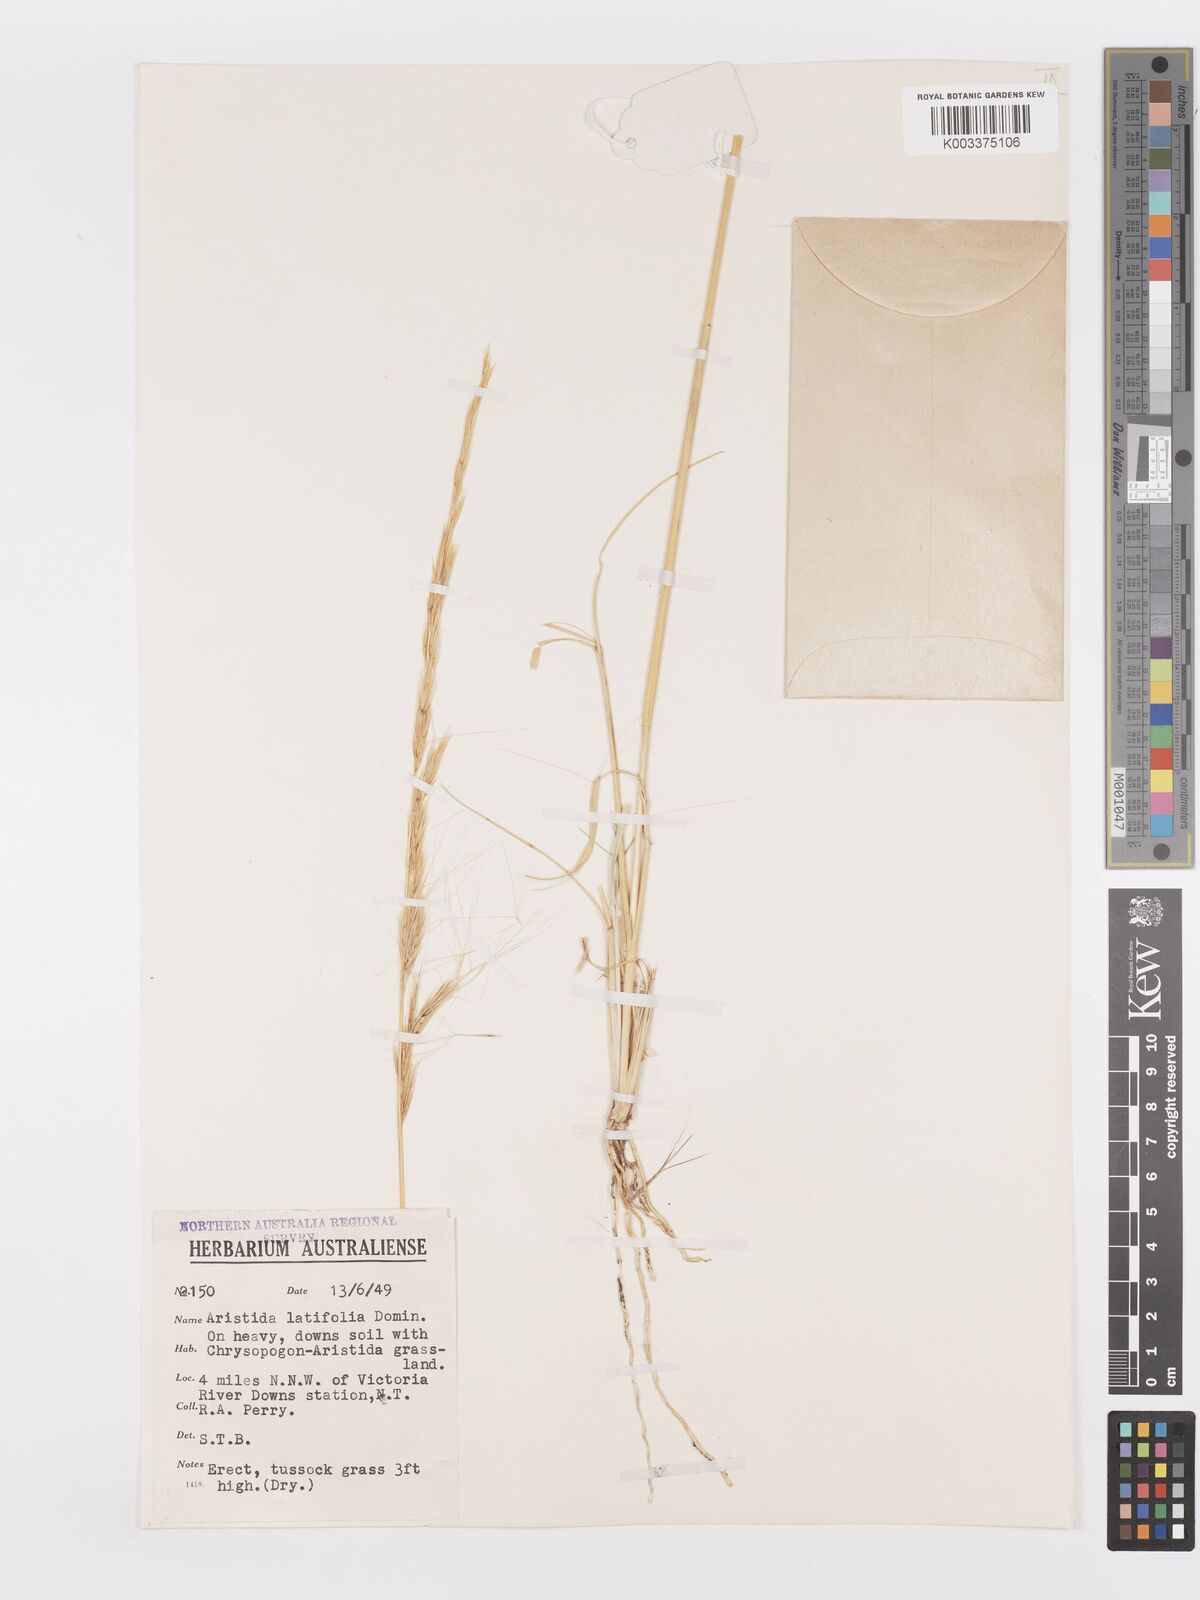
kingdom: Plantae
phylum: Tracheophyta
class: Liliopsida
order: Poales
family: Poaceae
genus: Aristida
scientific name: Aristida latifolia
